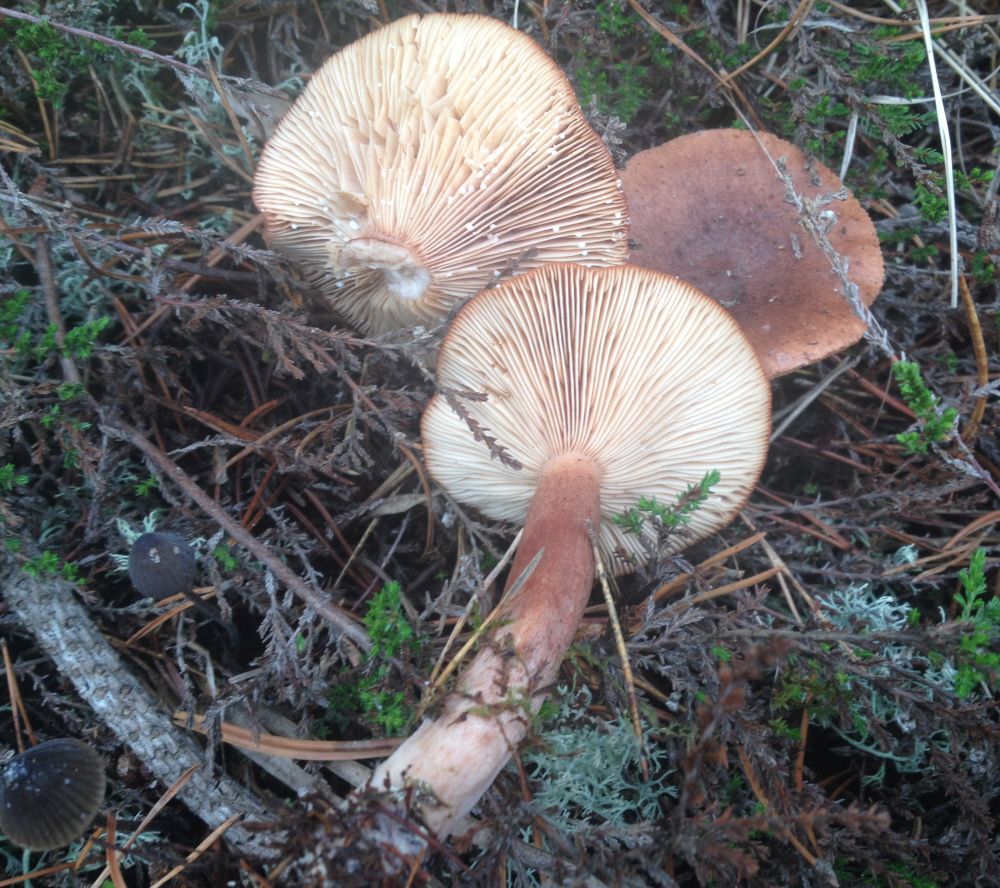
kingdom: Fungi
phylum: Basidiomycota
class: Agaricomycetes
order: Russulales
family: Russulaceae
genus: Lactarius
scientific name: Lactarius rufus
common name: rødbrun mælkehat
